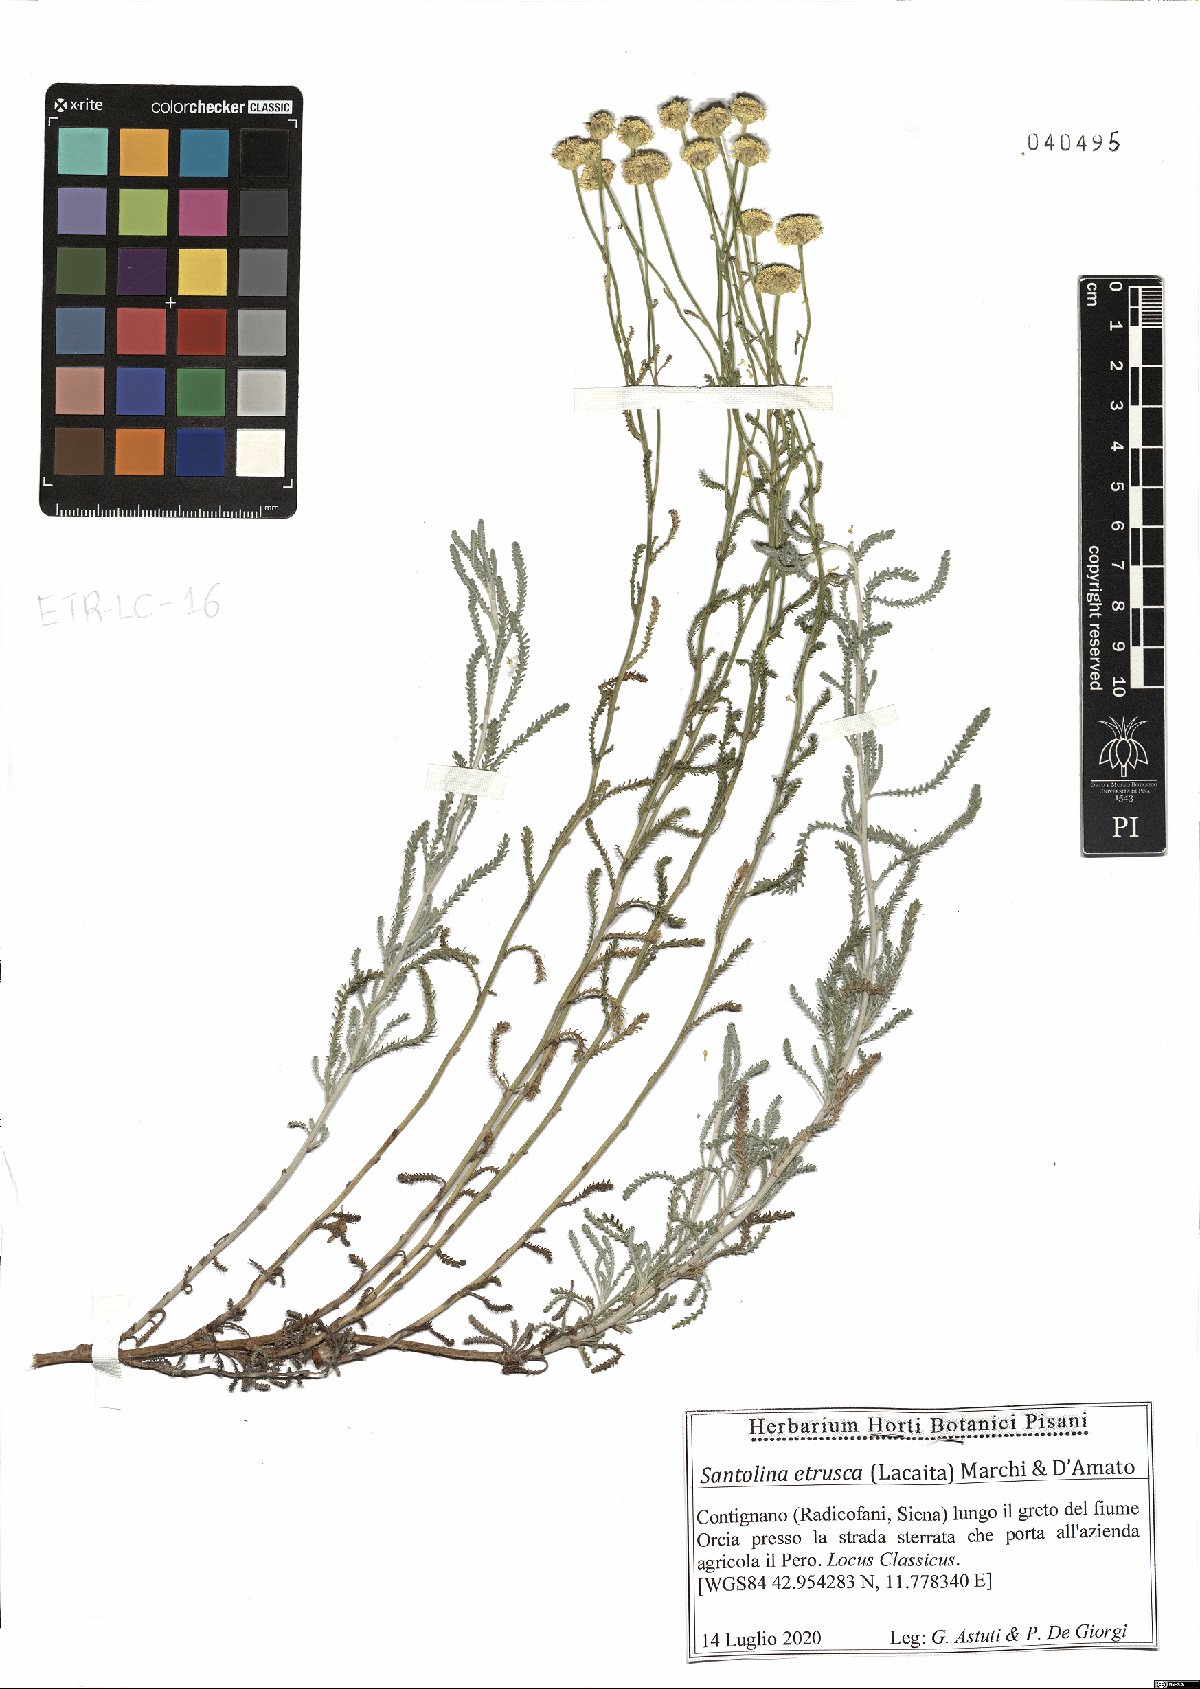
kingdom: Plantae
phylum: Tracheophyta
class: Magnoliopsida
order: Asterales
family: Asteraceae
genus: Santolina
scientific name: Santolina etrusca
